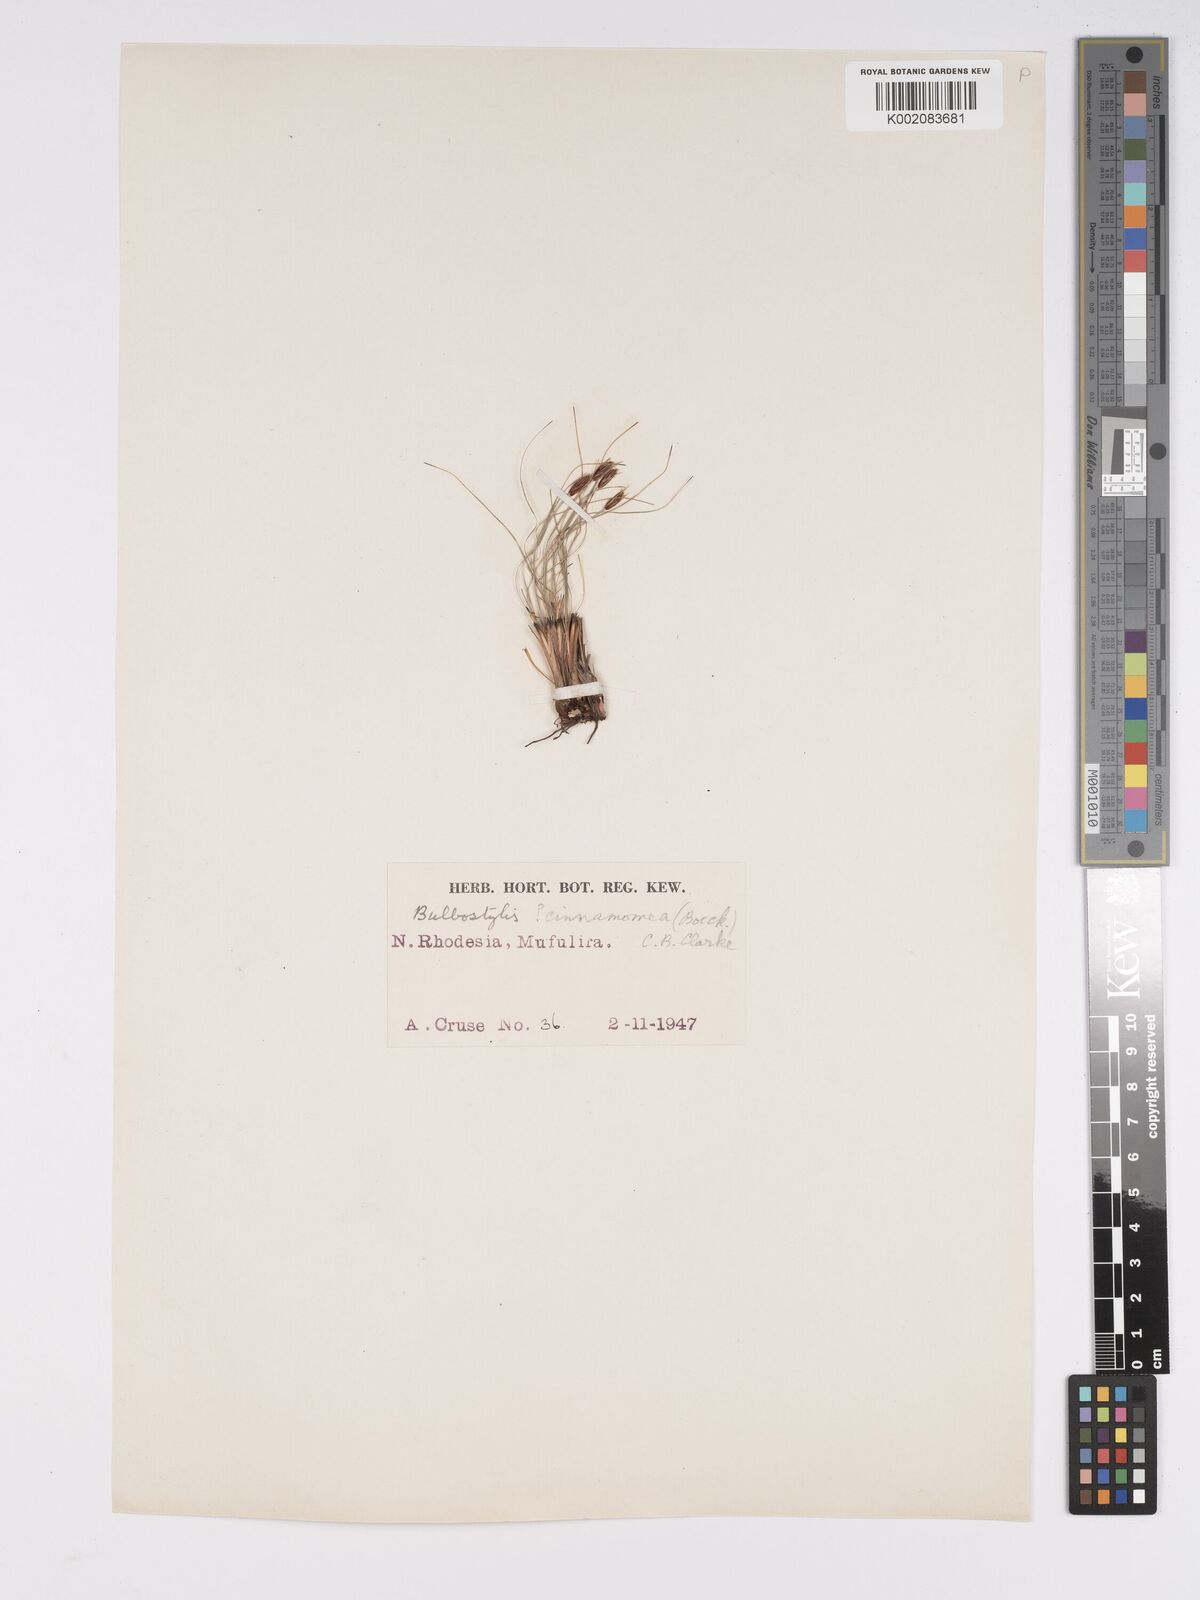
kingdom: Plantae
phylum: Tracheophyta
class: Liliopsida
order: Poales
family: Cyperaceae
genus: Bulbostylis
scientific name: Bulbostylis macra
